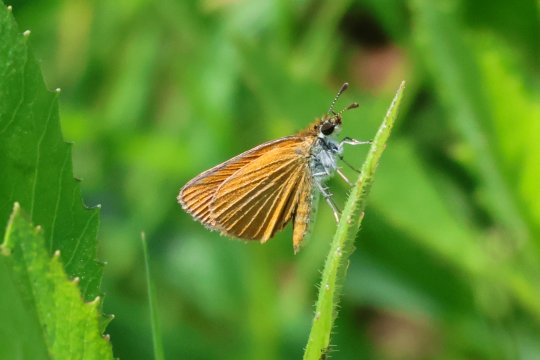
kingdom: Animalia
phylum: Arthropoda
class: Insecta
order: Lepidoptera
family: Hesperiidae
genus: Ancyloxypha
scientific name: Ancyloxypha numitor
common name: Least Skipper
